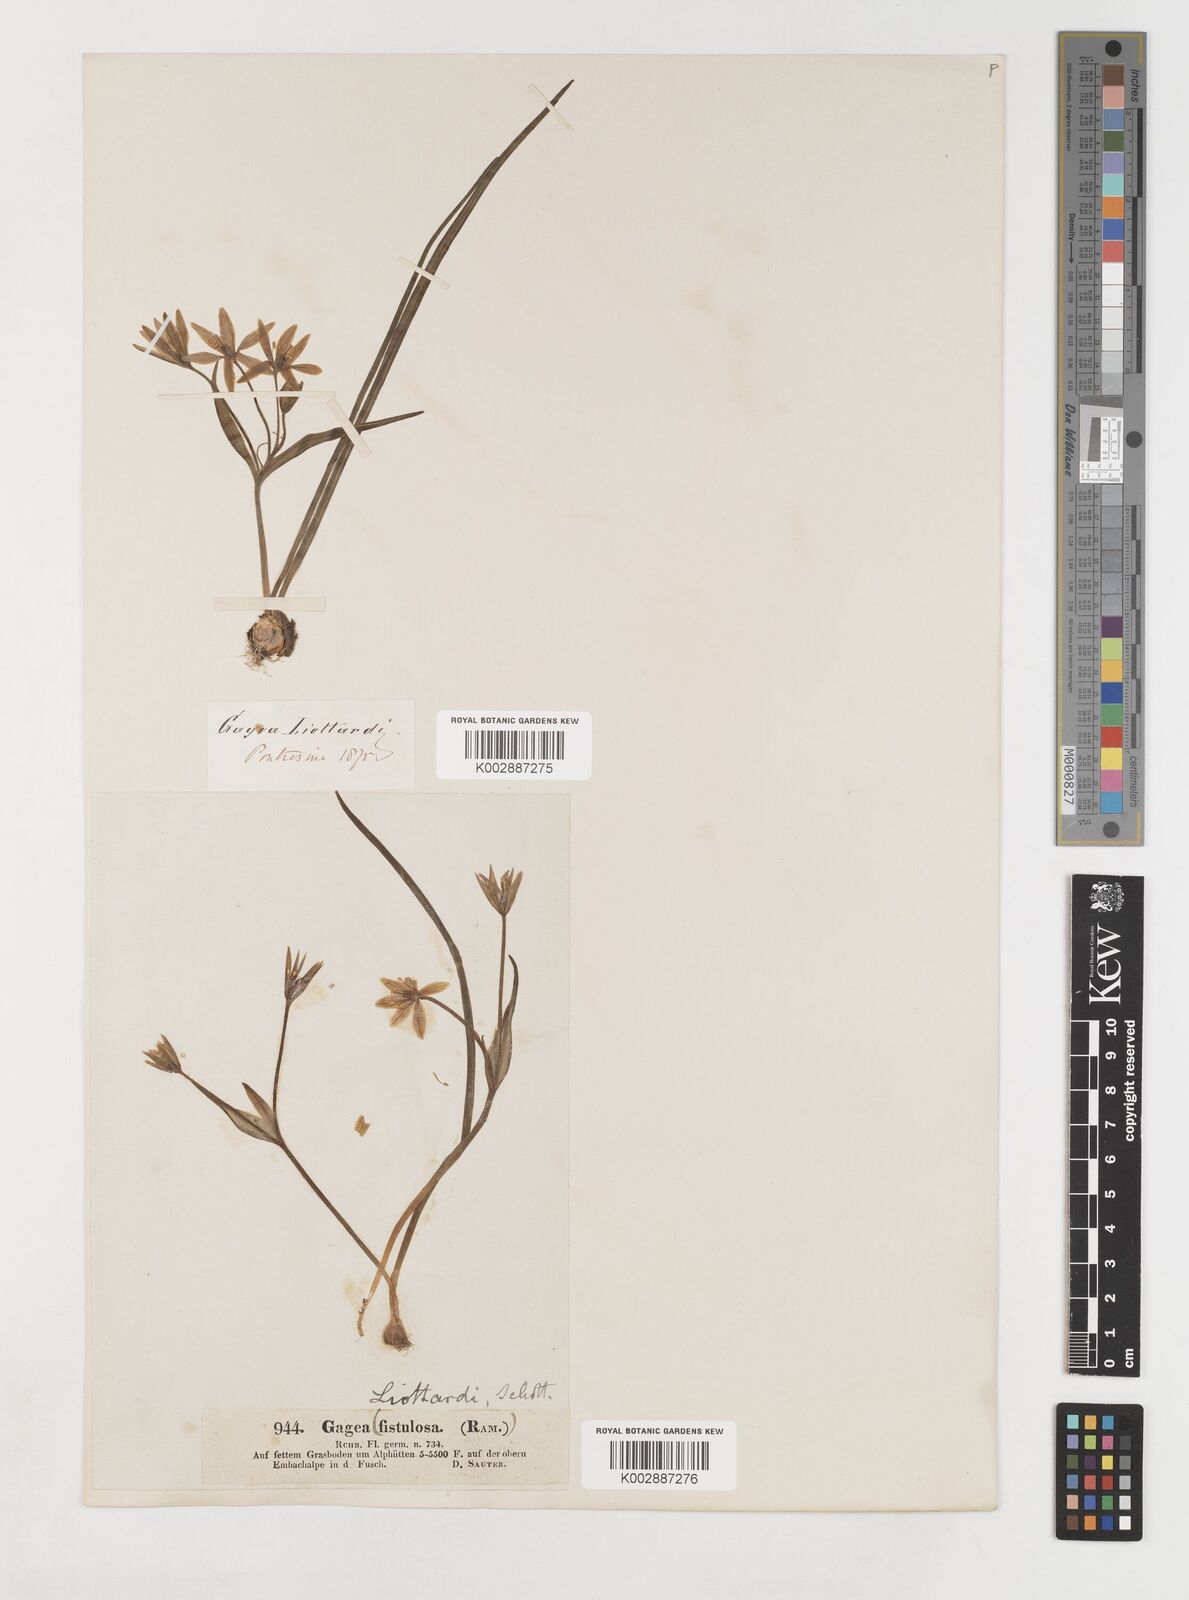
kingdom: Plantae
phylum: Tracheophyta
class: Liliopsida
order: Liliales
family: Liliaceae
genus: Gagea
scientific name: Gagea bohemica
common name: Early star-of-bethlehem
